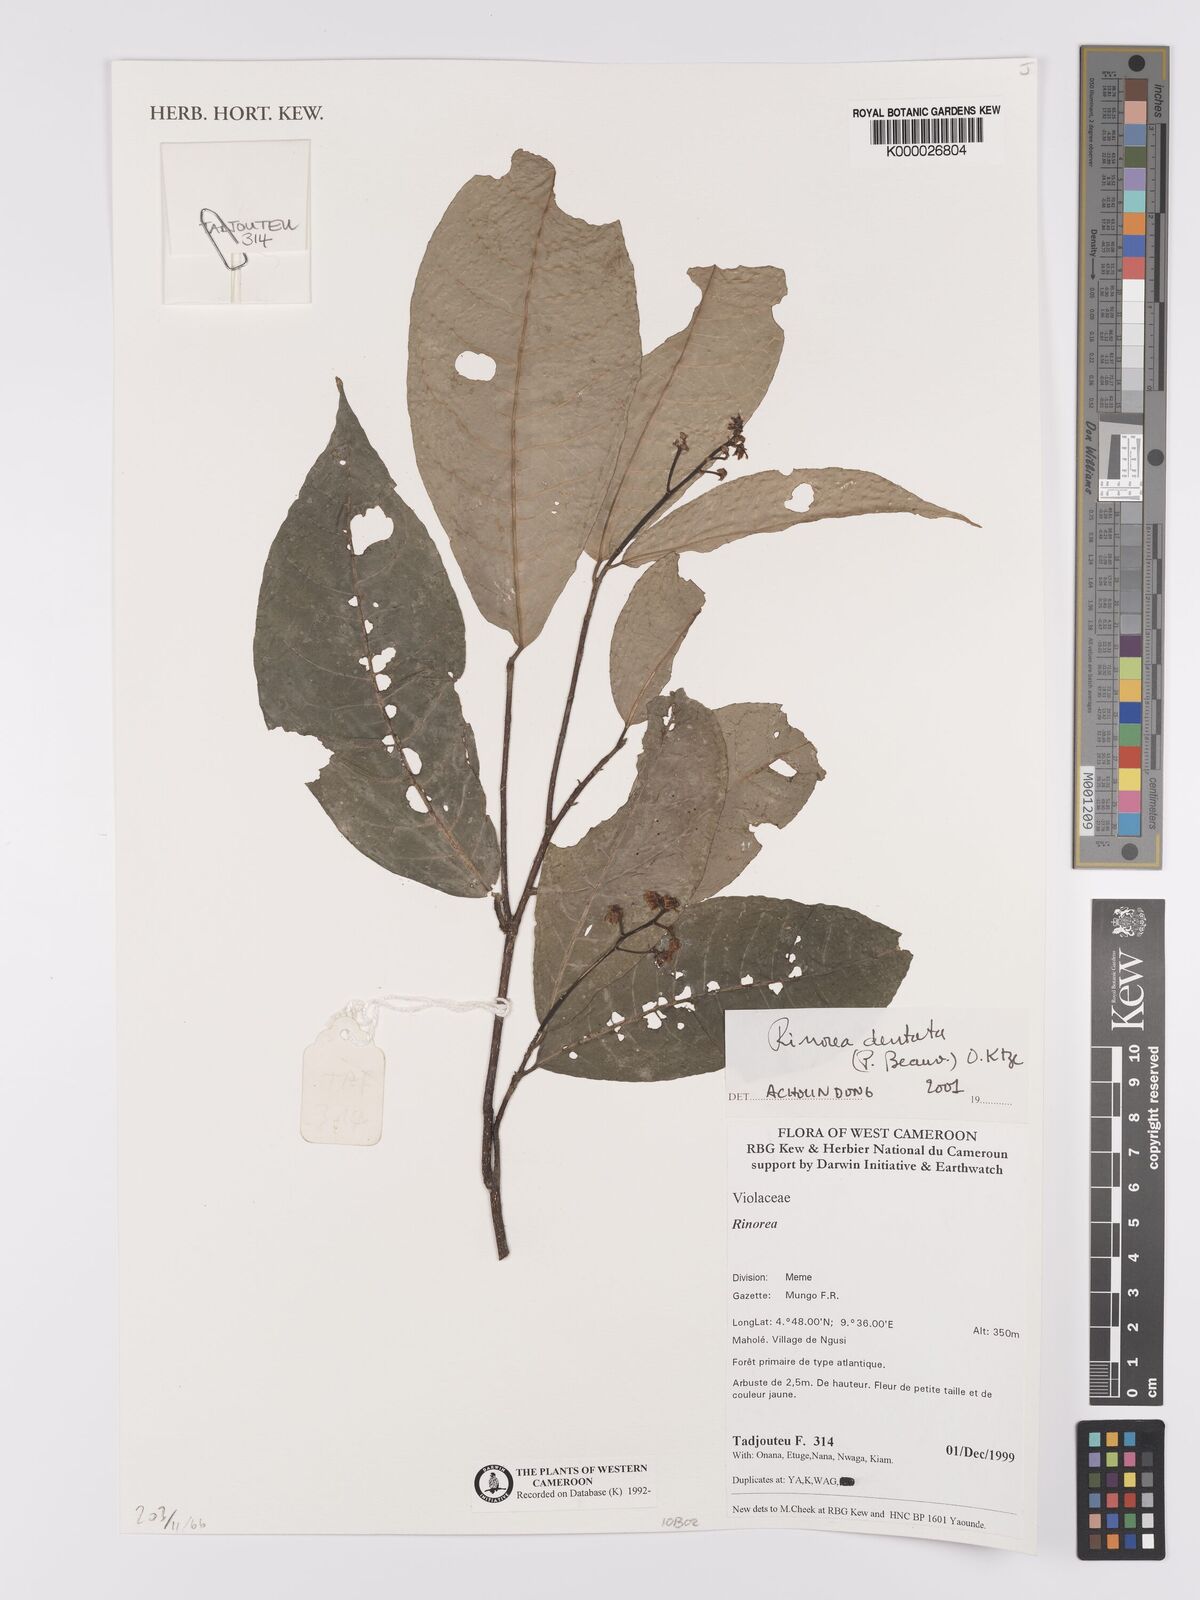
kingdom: Plantae
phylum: Tracheophyta
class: Magnoliopsida
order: Malpighiales
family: Violaceae
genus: Rinorea
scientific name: Rinorea dentata
